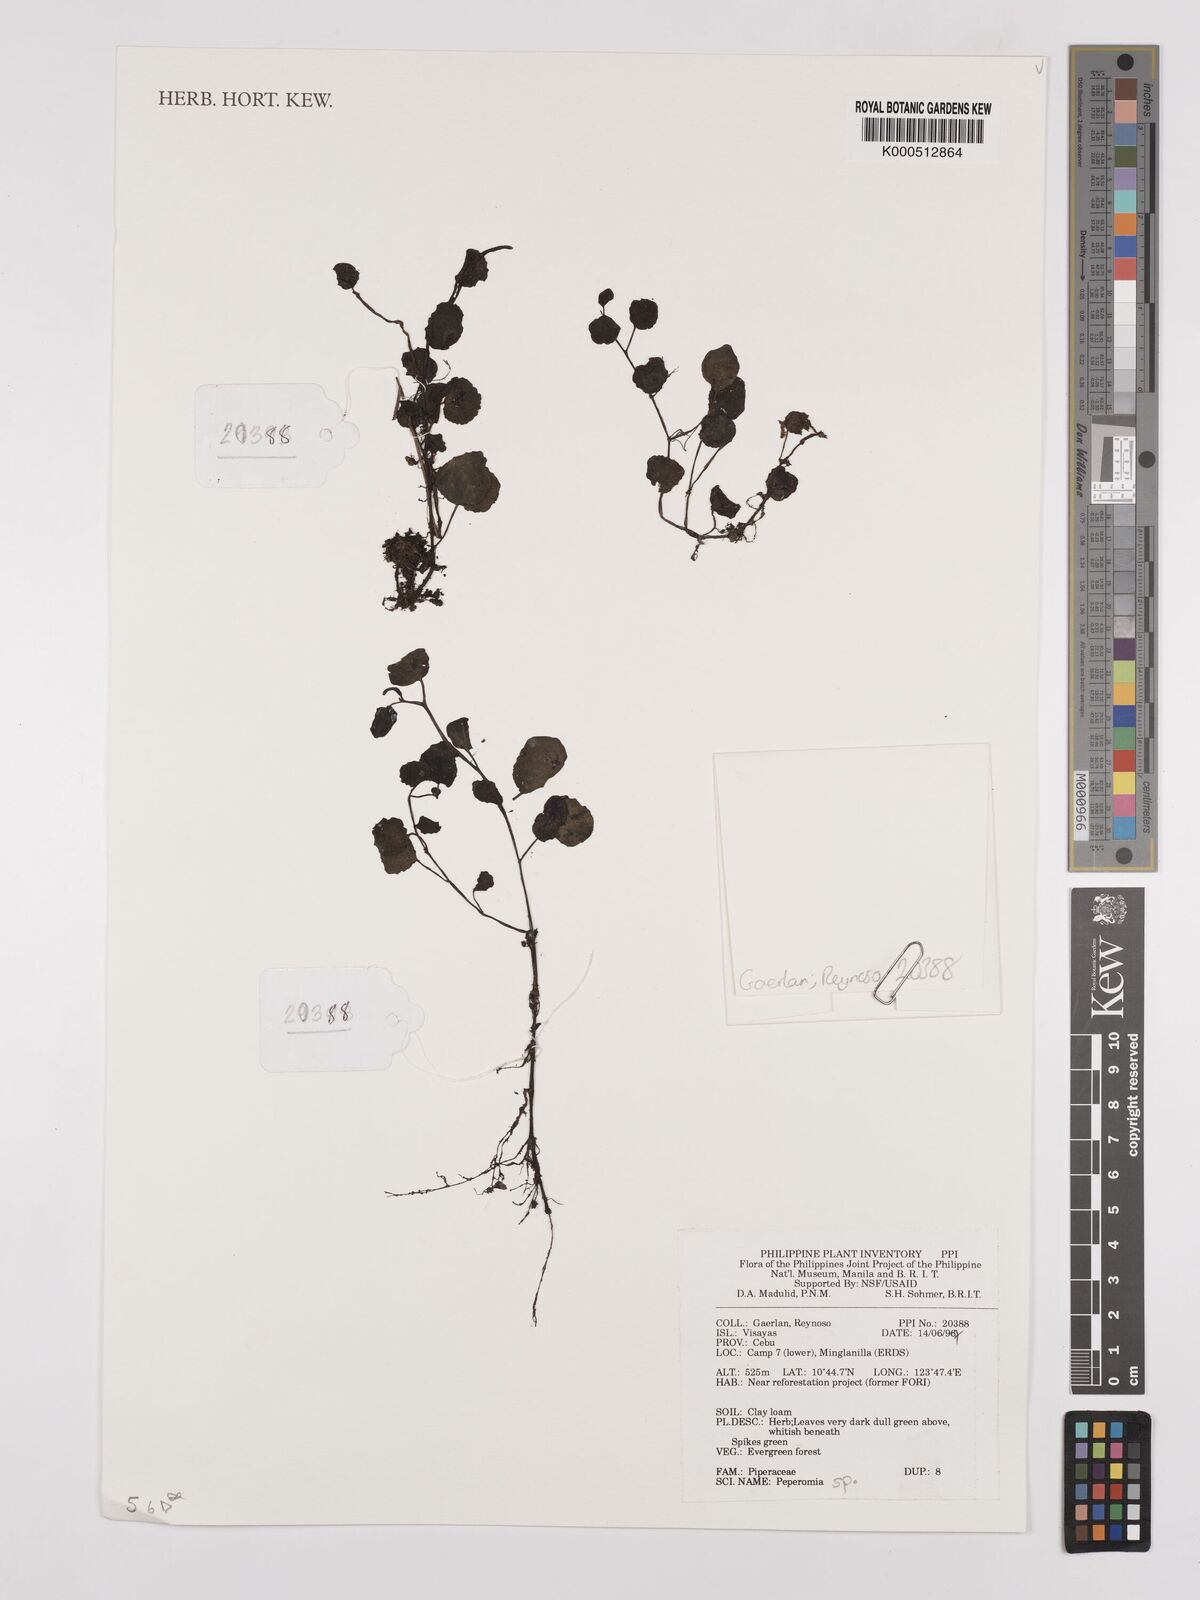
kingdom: Plantae
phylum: Tracheophyta
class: Magnoliopsida
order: Piperales
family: Piperaceae
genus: Peperomia
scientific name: Peperomia
